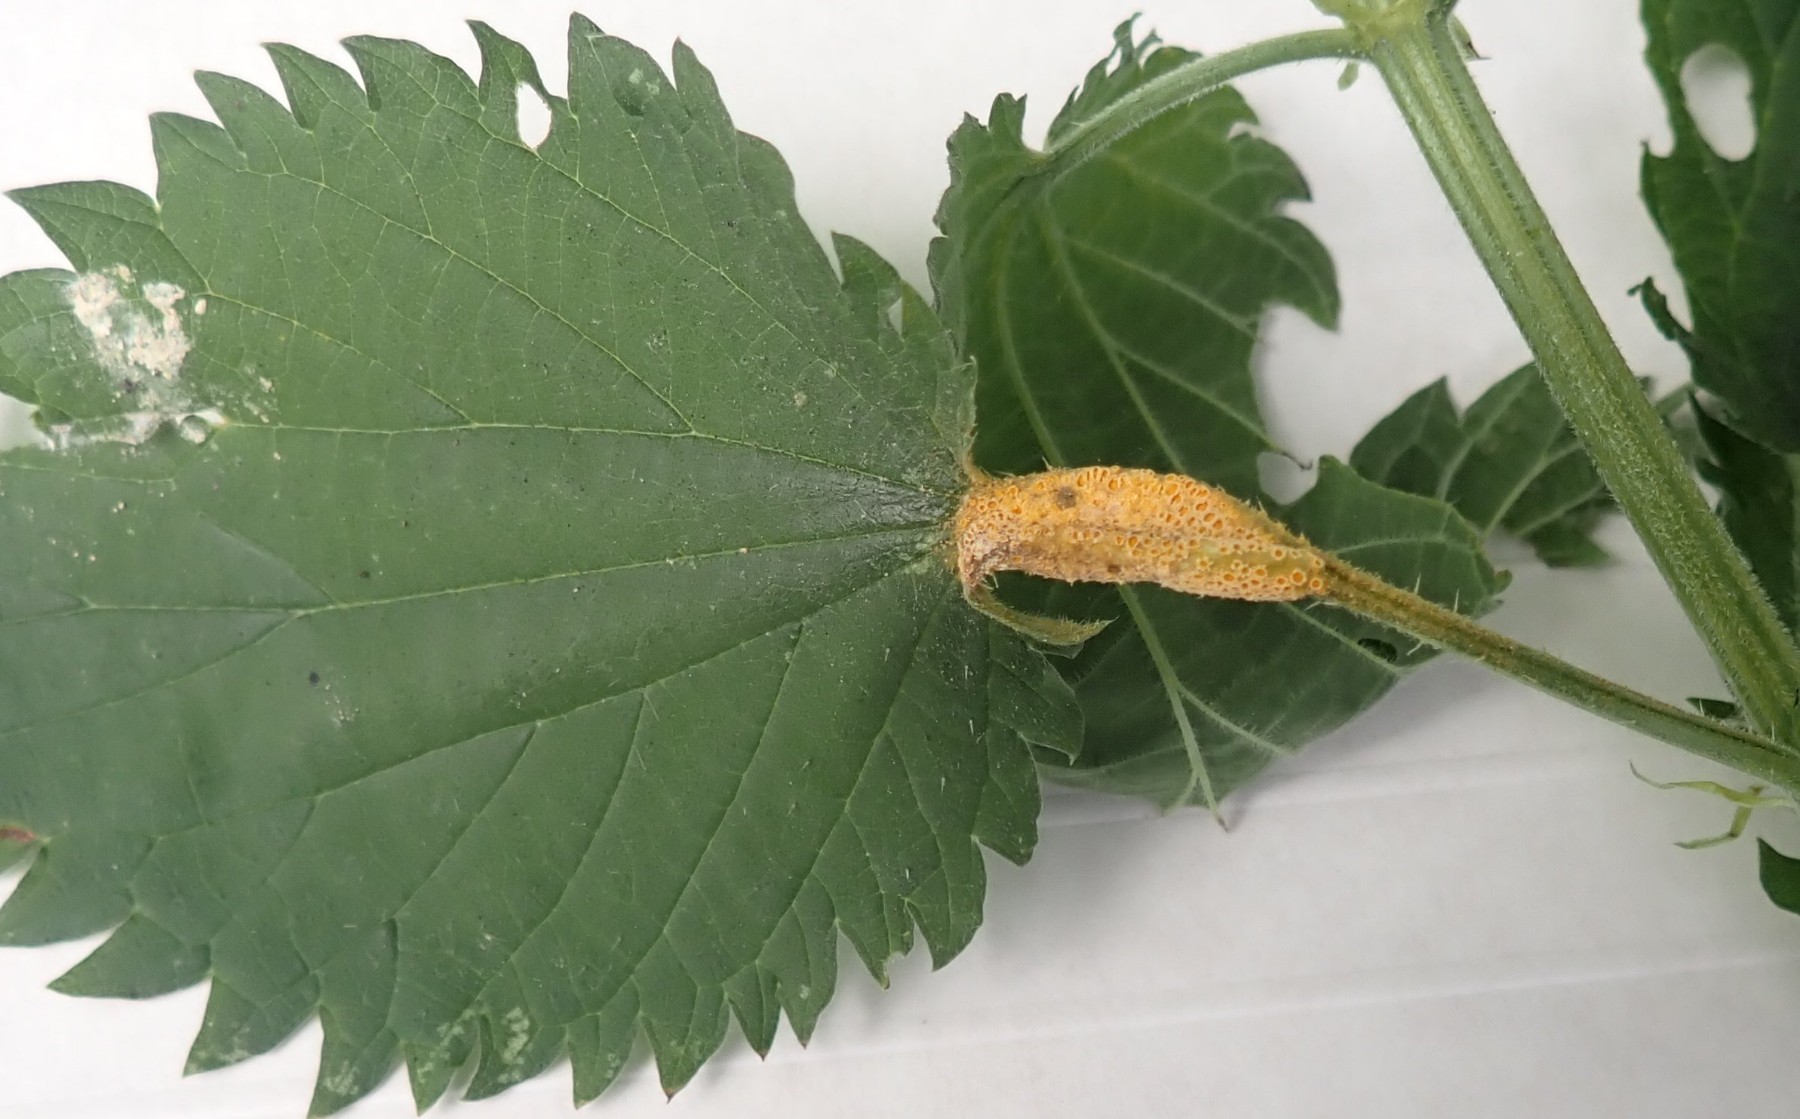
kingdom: Fungi
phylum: Basidiomycota
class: Pucciniomycetes
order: Pucciniales
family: Pucciniaceae
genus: Puccinia
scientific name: Puccinia urticata
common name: nældegalle-tvecellerust
